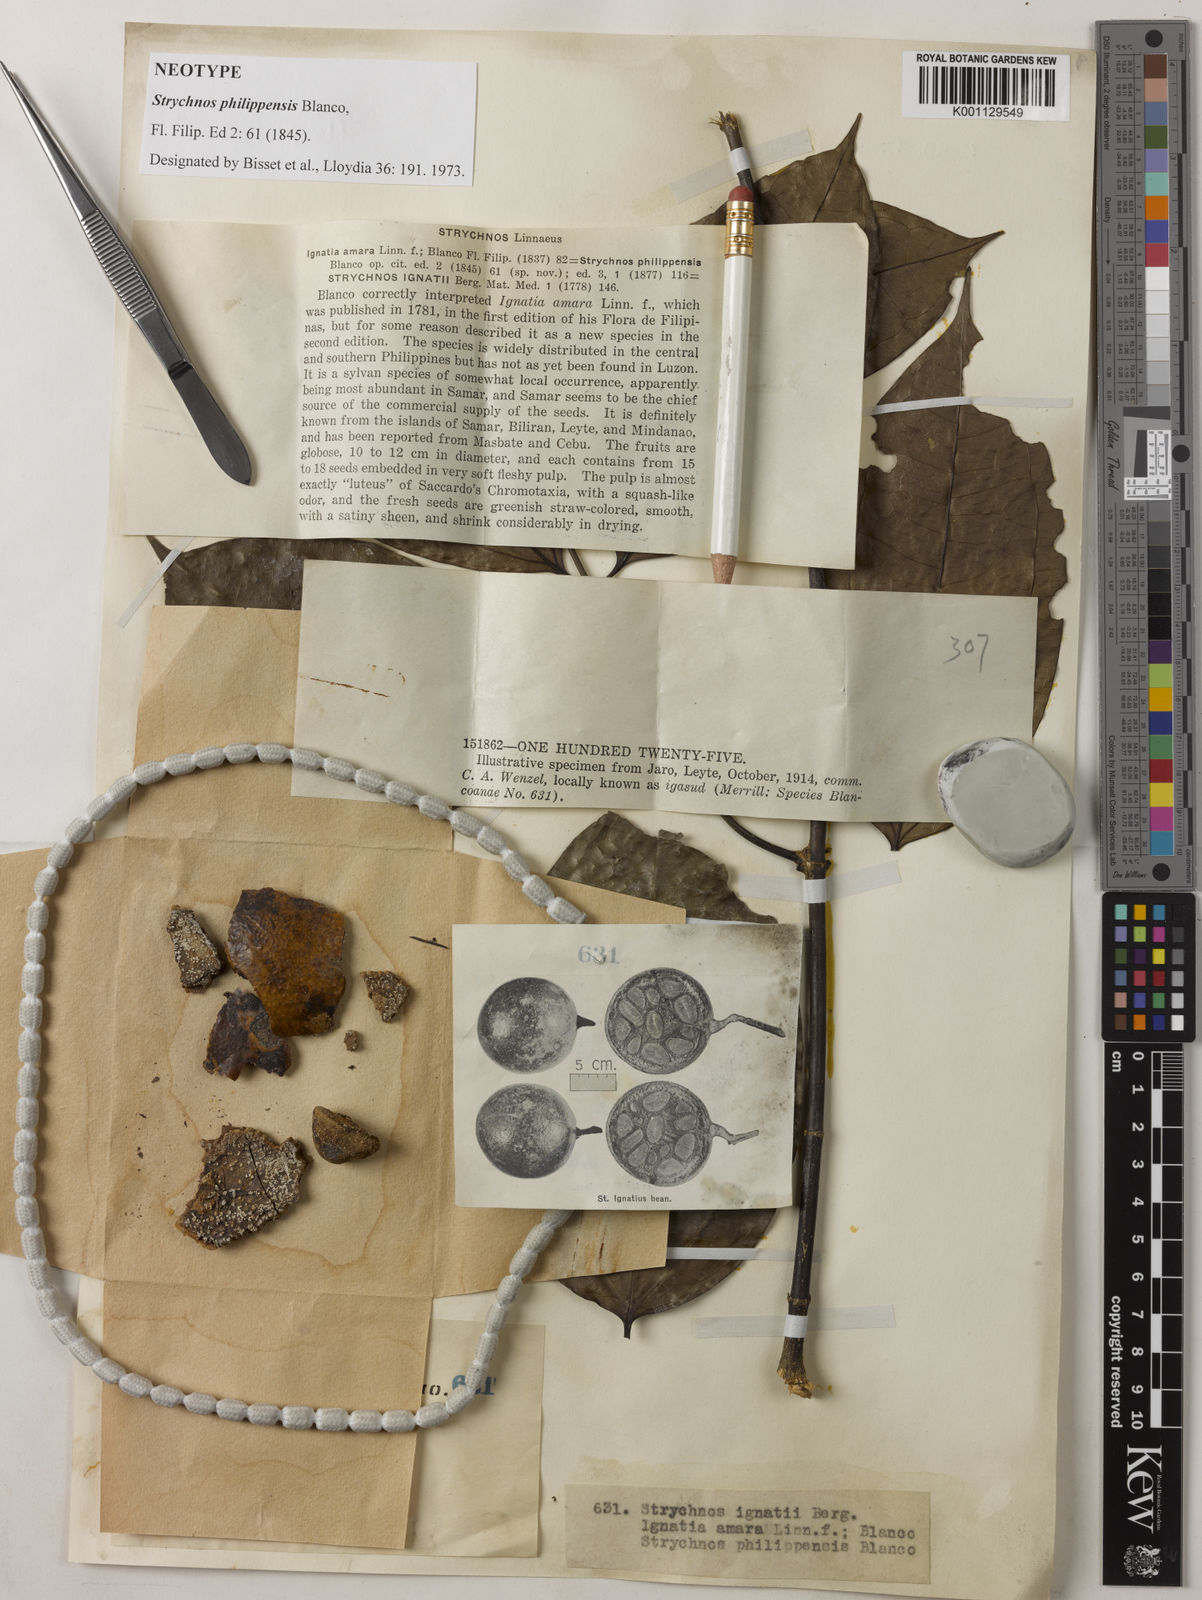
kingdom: Plantae
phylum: Tracheophyta
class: Magnoliopsida
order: Gentianales
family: Loganiaceae
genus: Strychnos
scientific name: Strychnos ignatii
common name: Ignatius-bean
